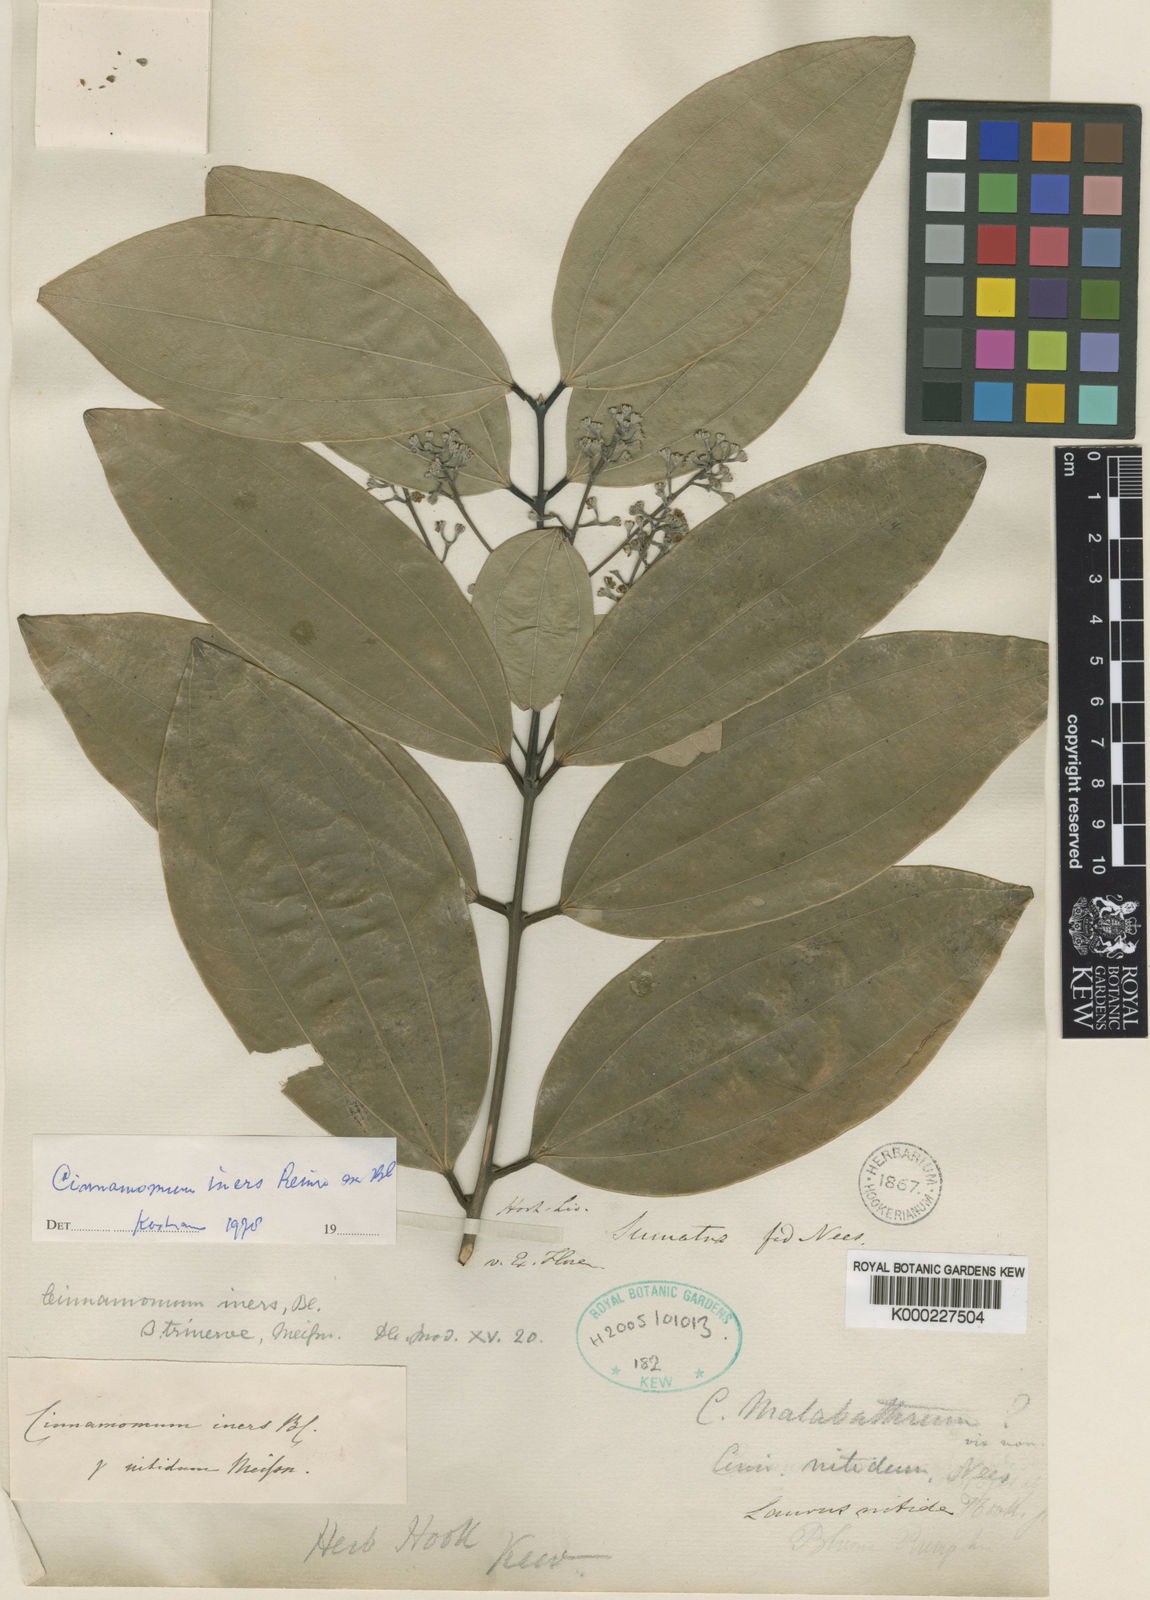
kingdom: Plantae
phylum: Tracheophyta
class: Magnoliopsida
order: Laurales
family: Lauraceae
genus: Cinnamomum
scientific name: Cinnamomum iners
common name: Wild cinnamon
